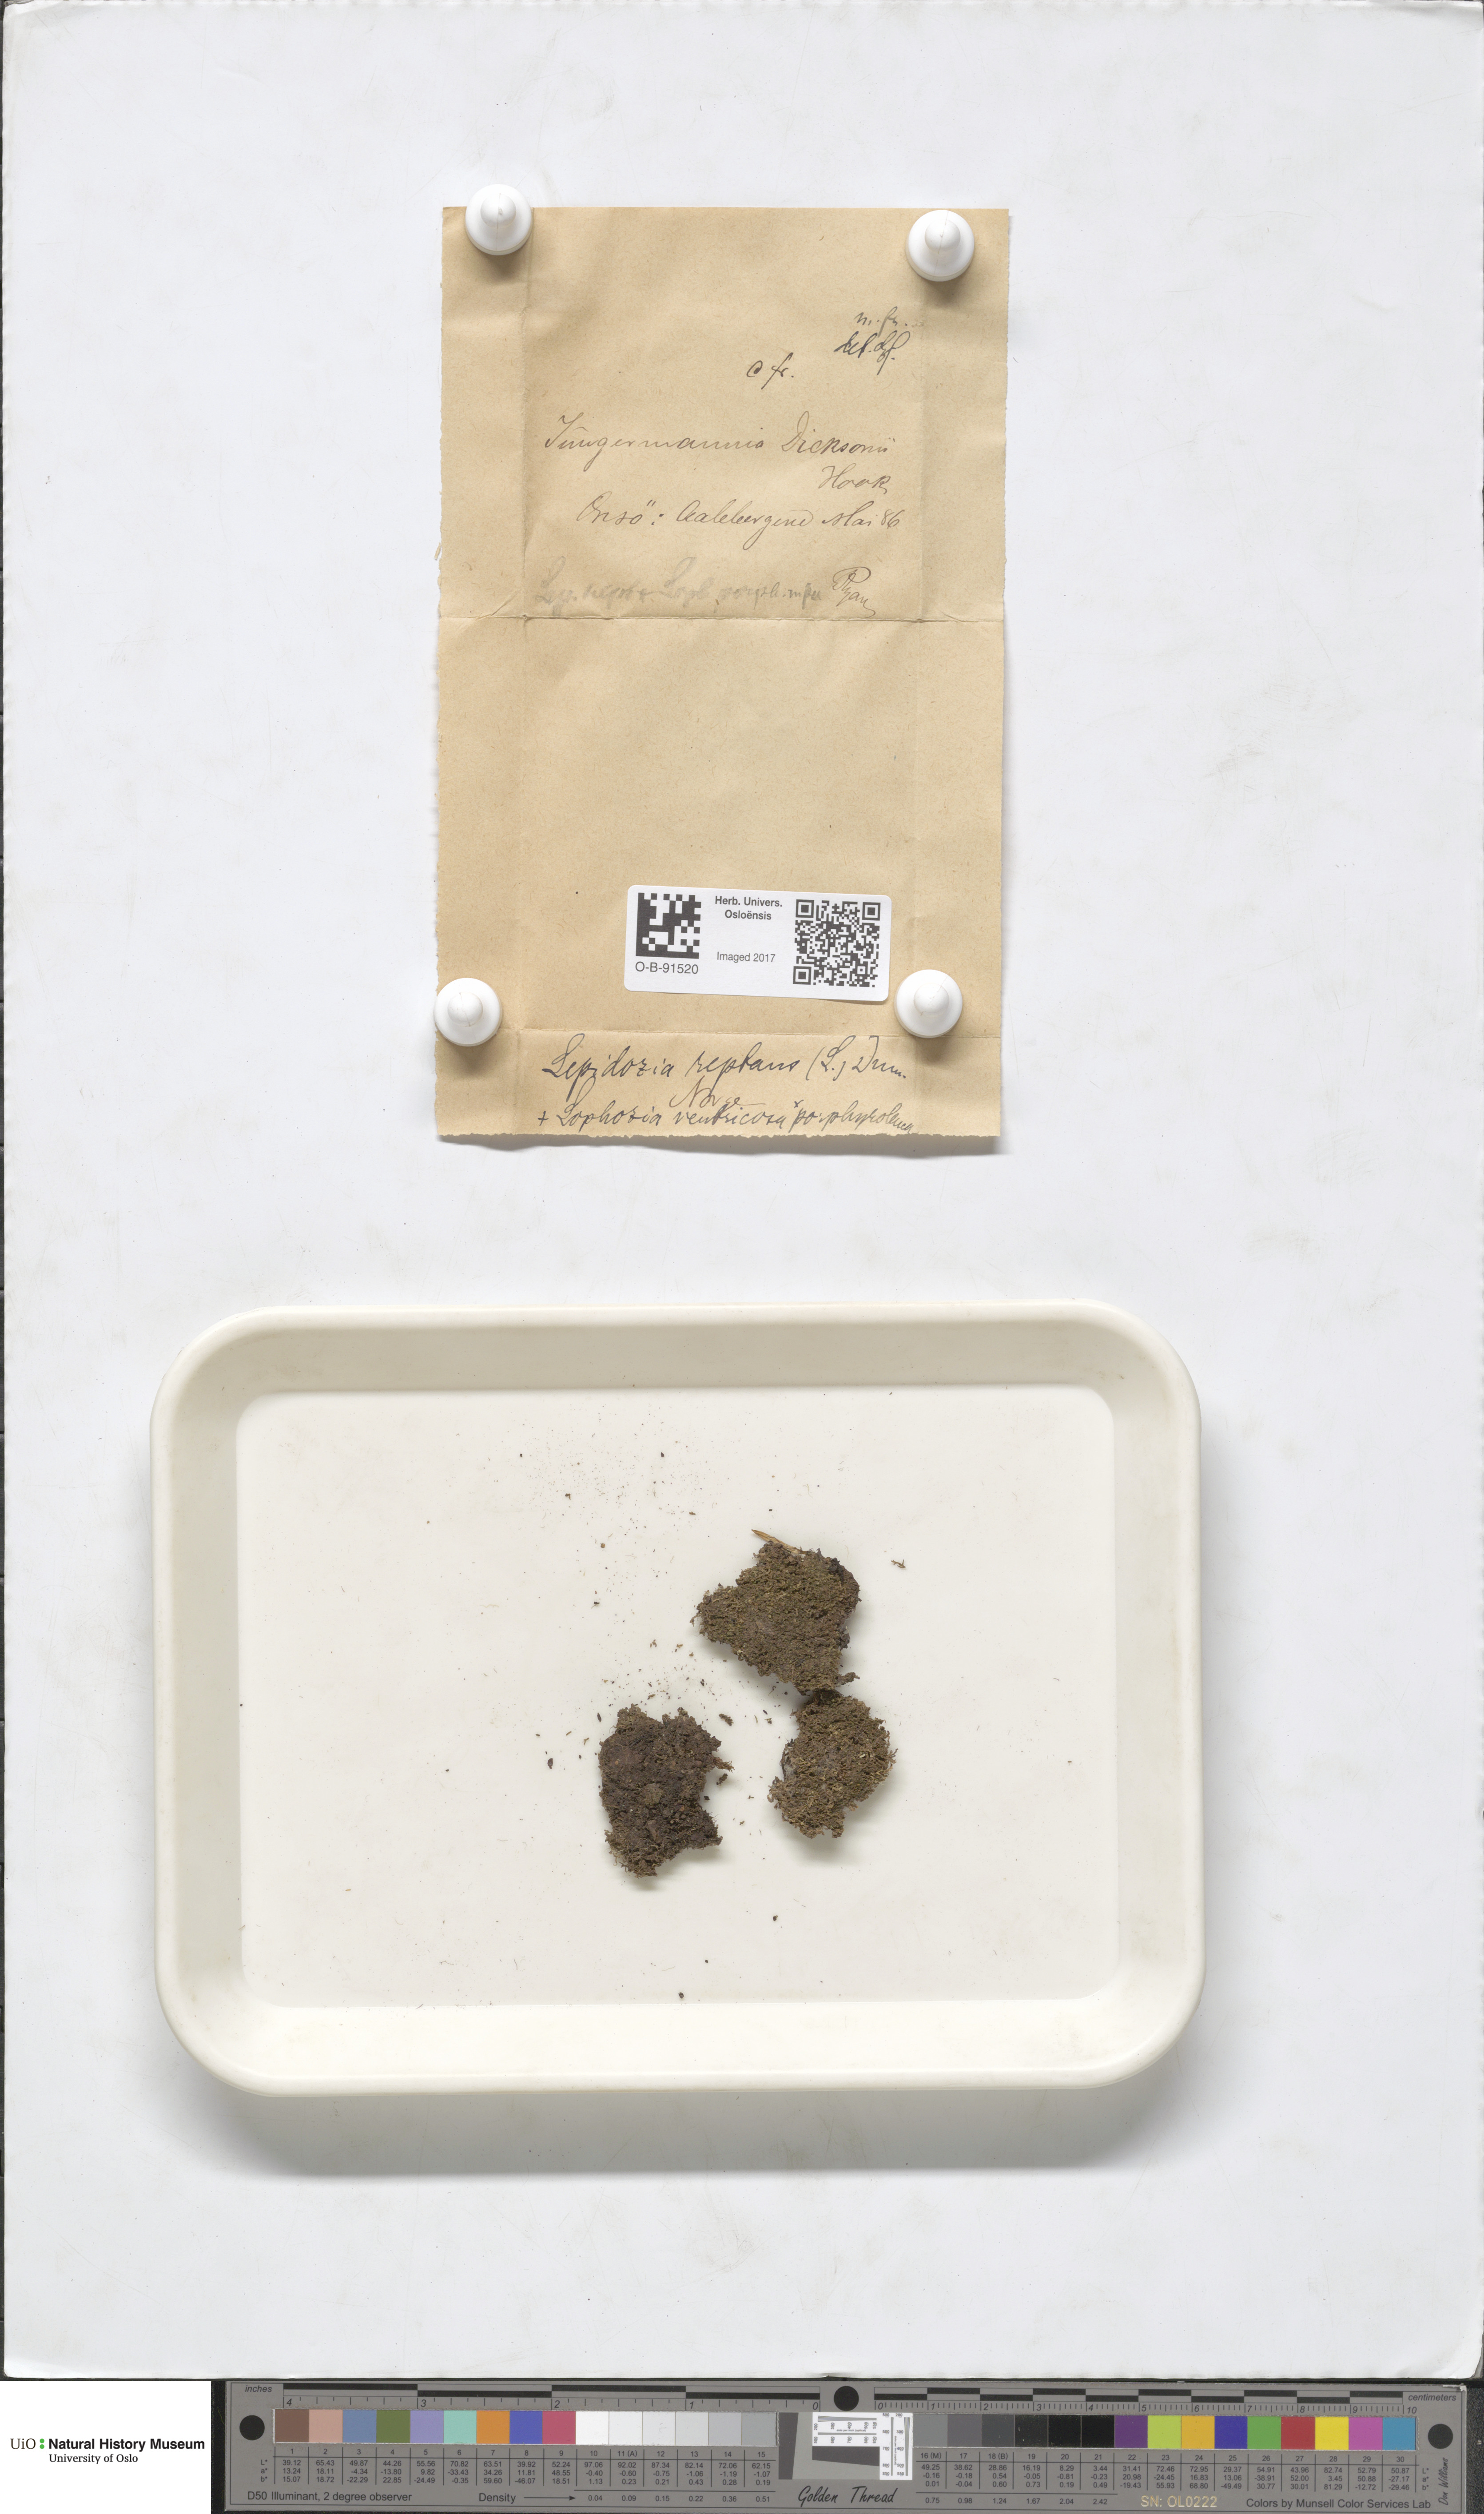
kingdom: Plantae
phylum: Marchantiophyta
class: Jungermanniopsida
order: Jungermanniales
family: Lepidoziaceae
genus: Lepidozia
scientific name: Lepidozia reptans
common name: Creeping fingerwort
